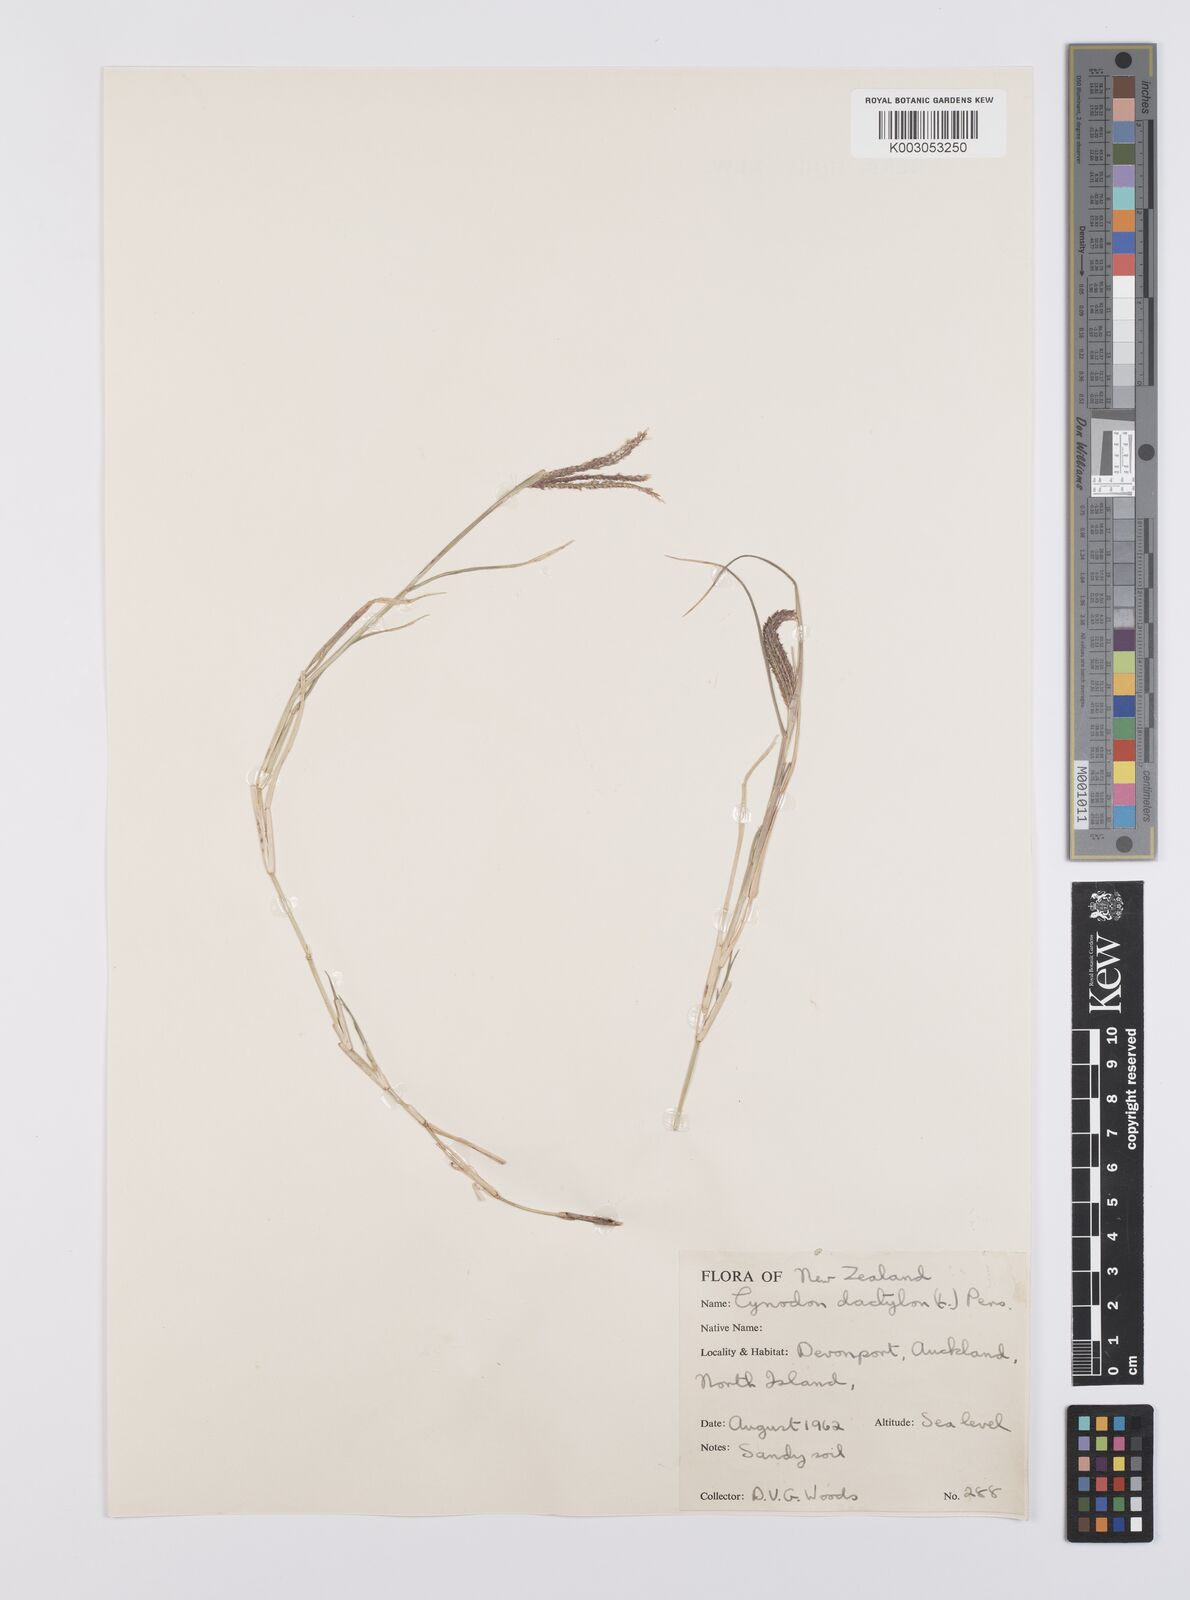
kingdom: Plantae
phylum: Tracheophyta
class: Liliopsida
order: Poales
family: Poaceae
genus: Cynodon
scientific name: Cynodon dactylon
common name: Bermuda grass
